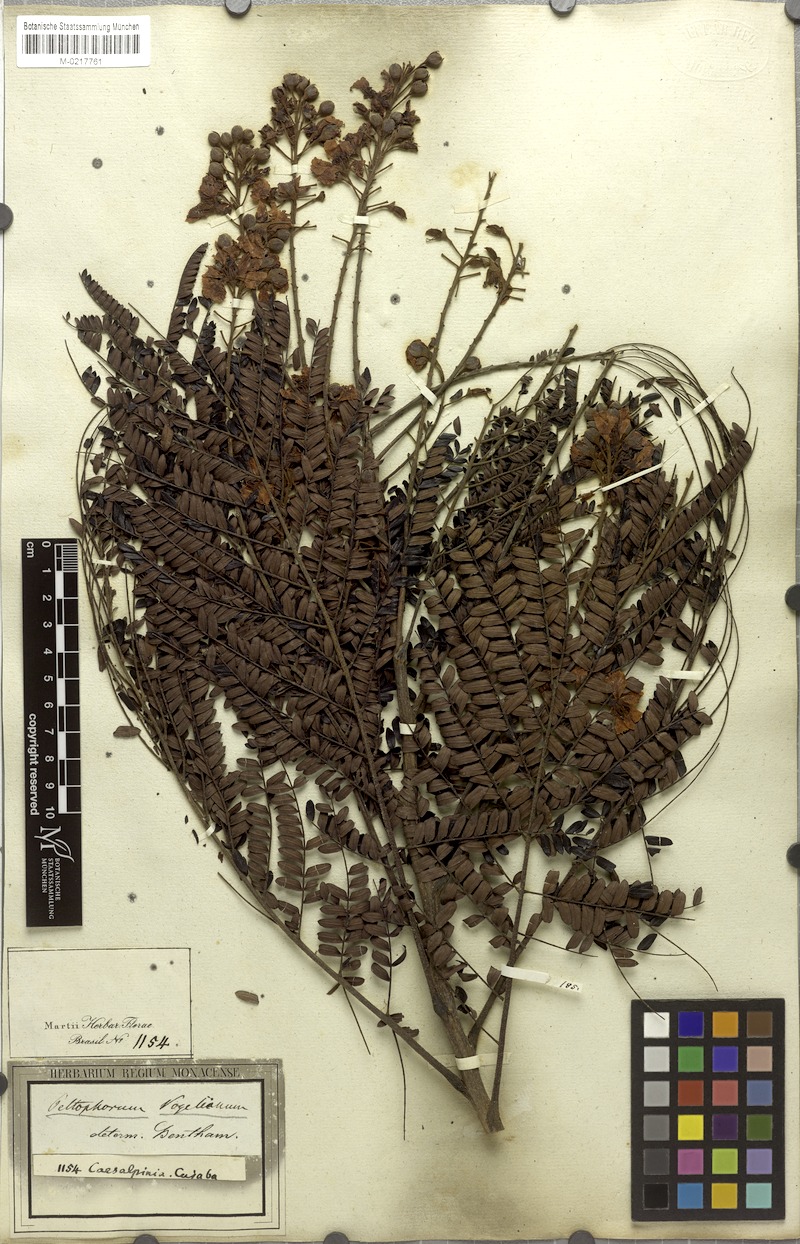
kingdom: Plantae
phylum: Tracheophyta
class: Magnoliopsida
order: Fabales
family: Fabaceae
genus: Peltophorum
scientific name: Peltophorum dubium
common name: Horsebush
